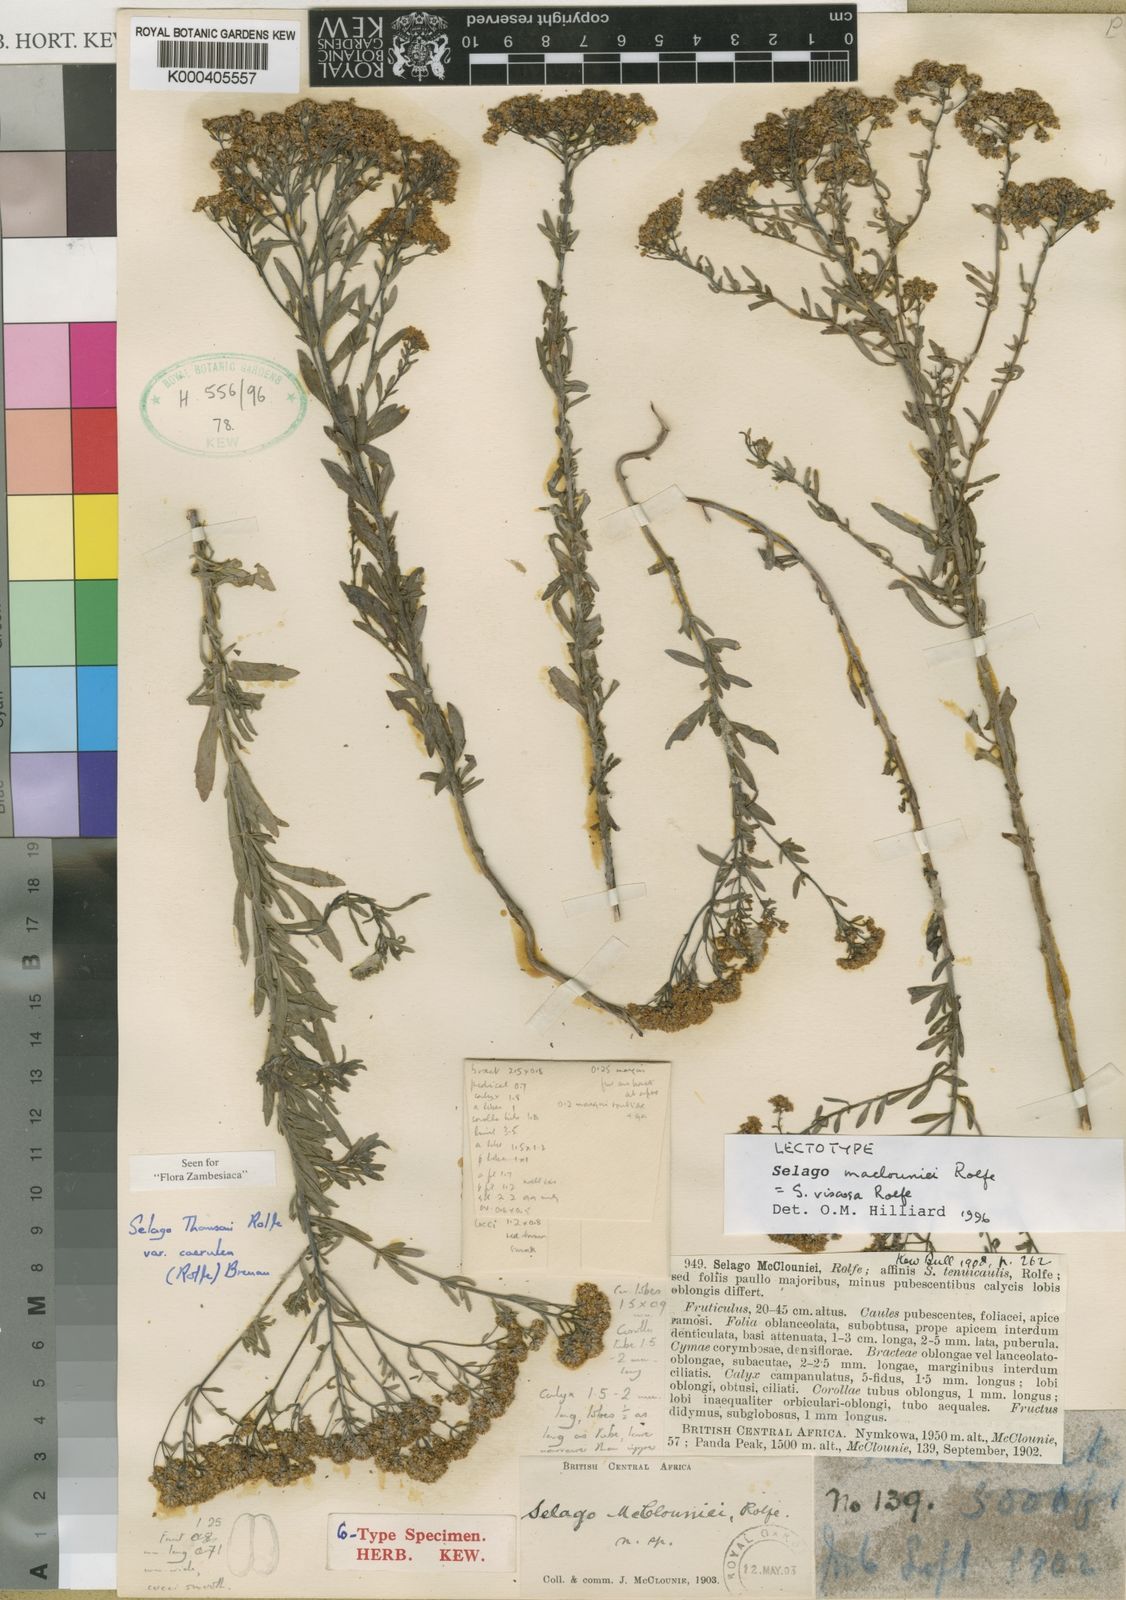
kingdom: Plantae
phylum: Tracheophyta
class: Magnoliopsida
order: Lamiales
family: Scrophulariaceae
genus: Selago
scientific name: Selago viscosa
